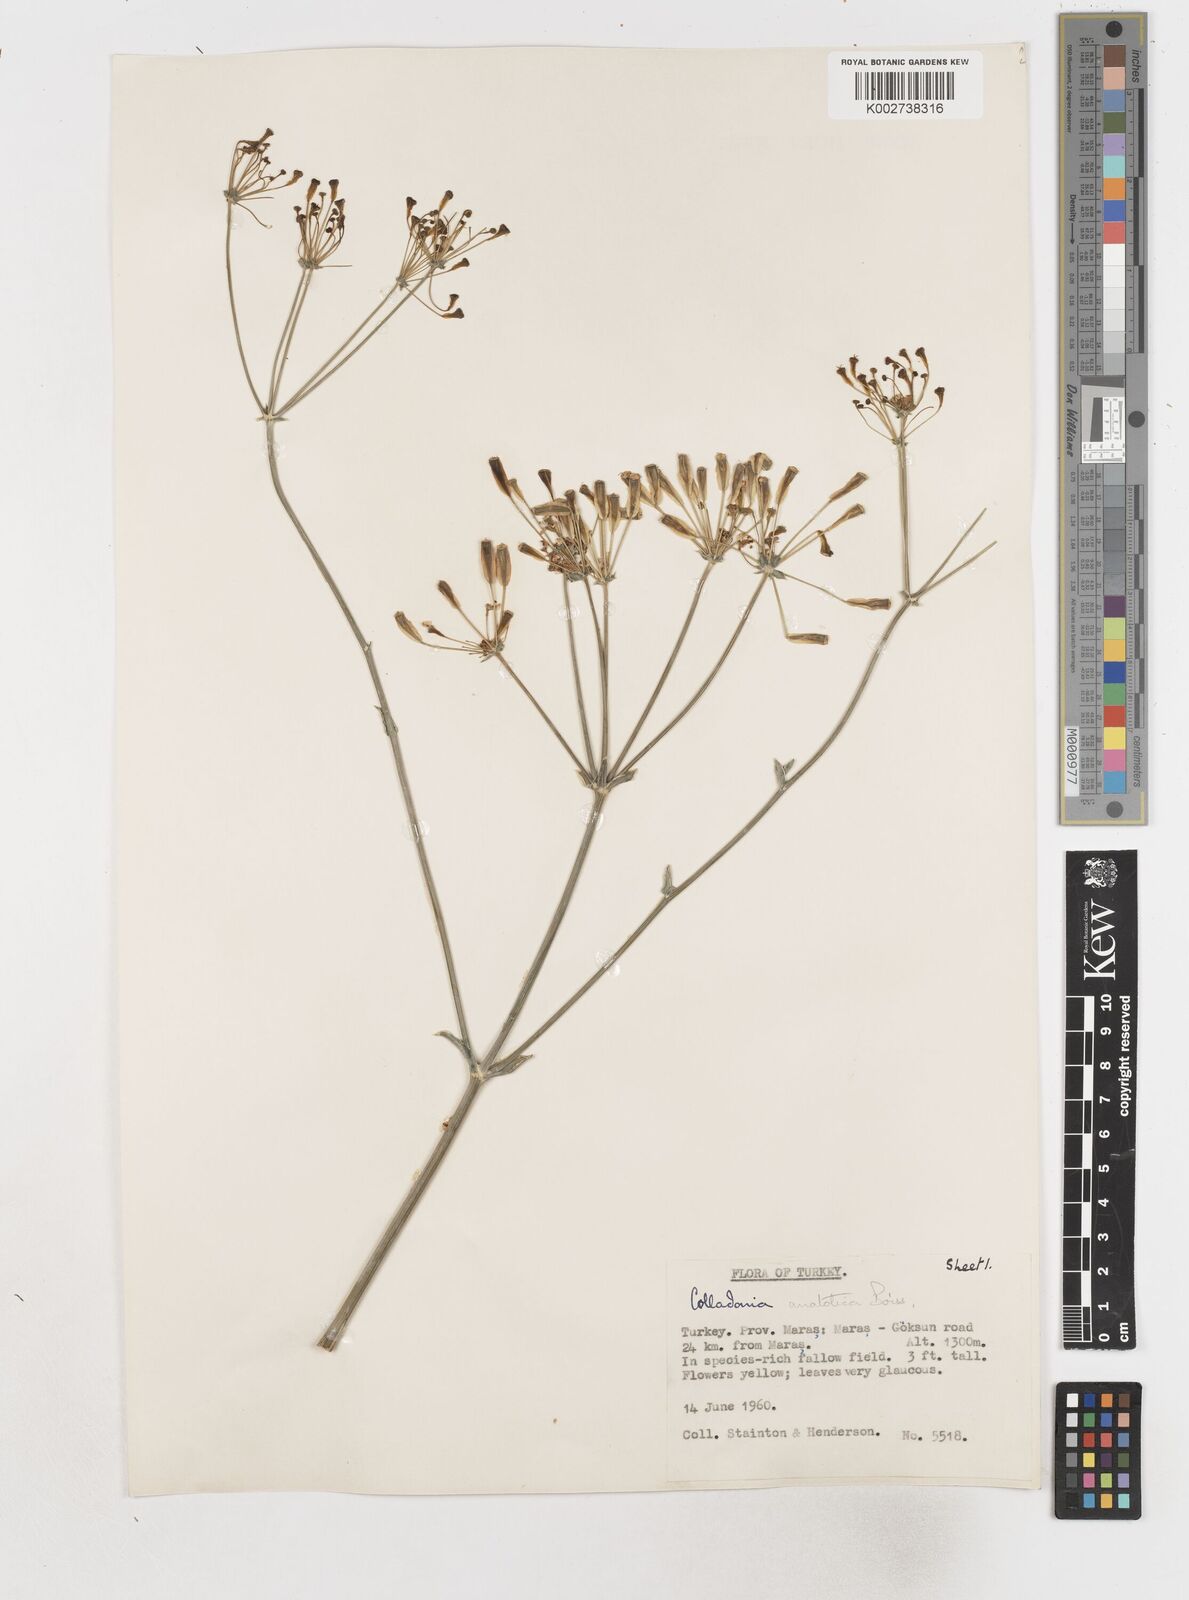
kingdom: Plantae
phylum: Tracheophyta
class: Magnoliopsida
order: Apiales
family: Apiaceae
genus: Heptaptera
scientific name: Heptaptera anatolica
